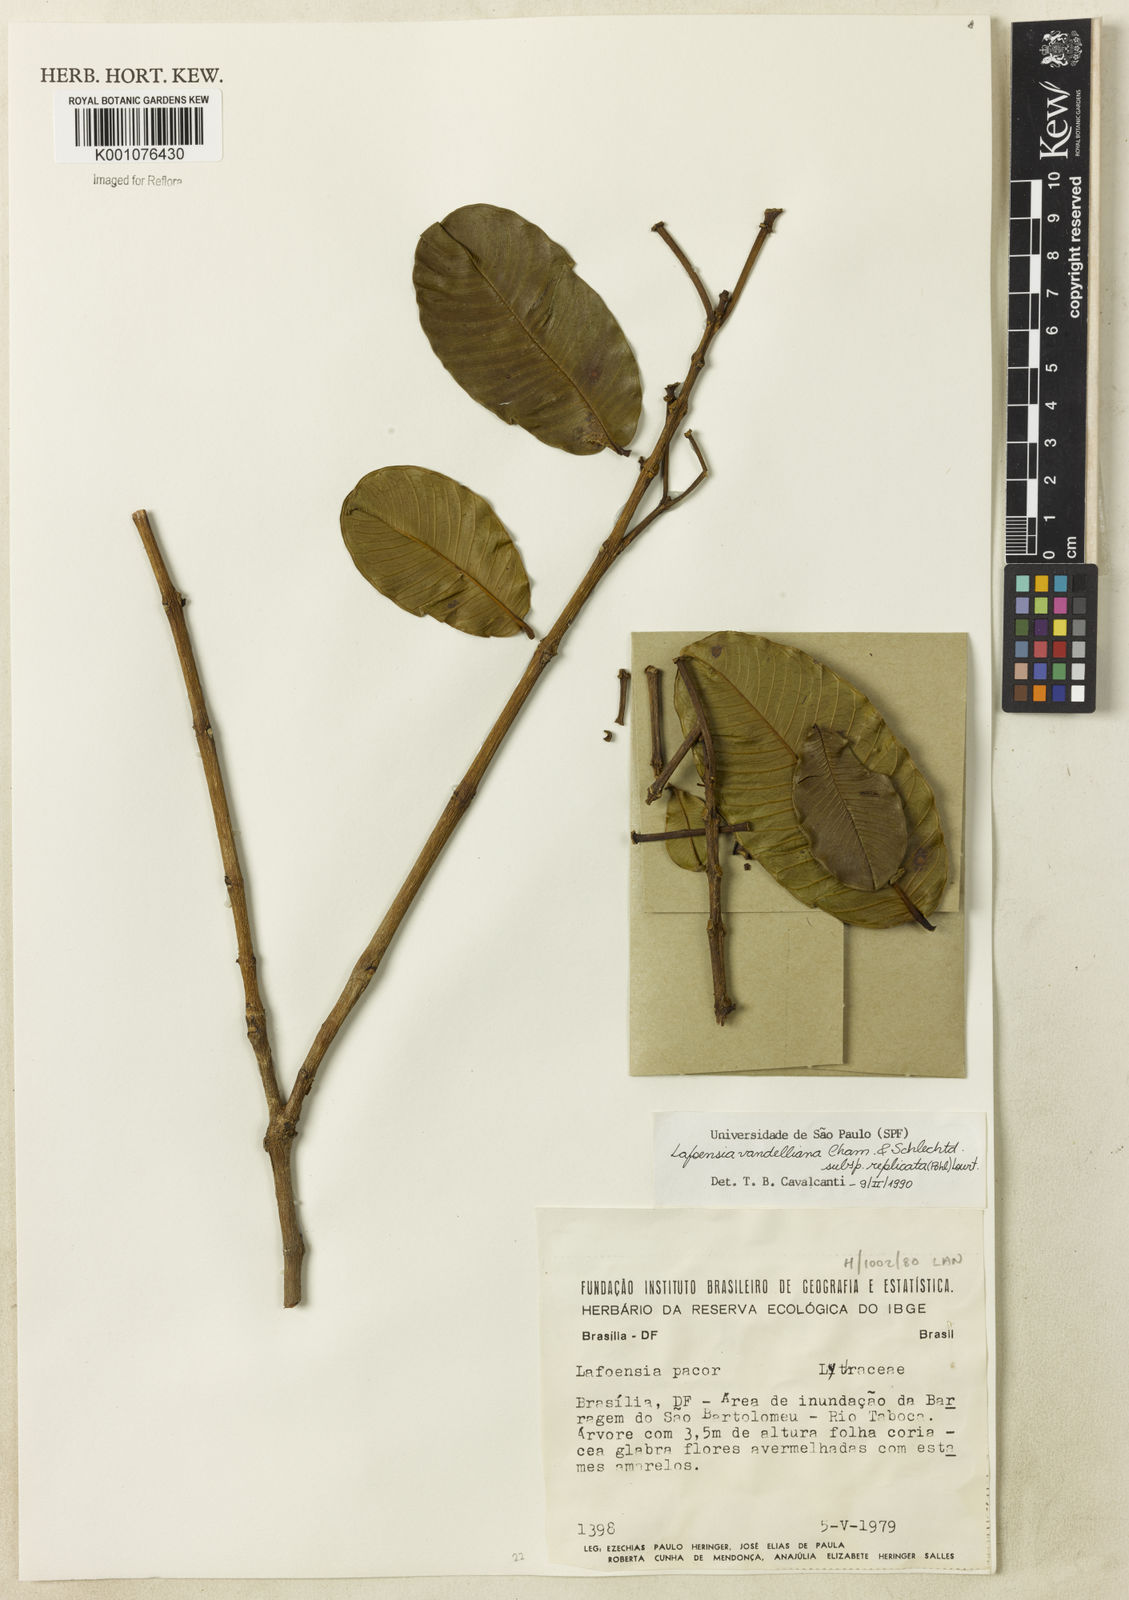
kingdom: Plantae
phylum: Tracheophyta
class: Magnoliopsida
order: Myrtales
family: Lythraceae
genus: Lafoensia
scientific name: Lafoensia vandelliana
